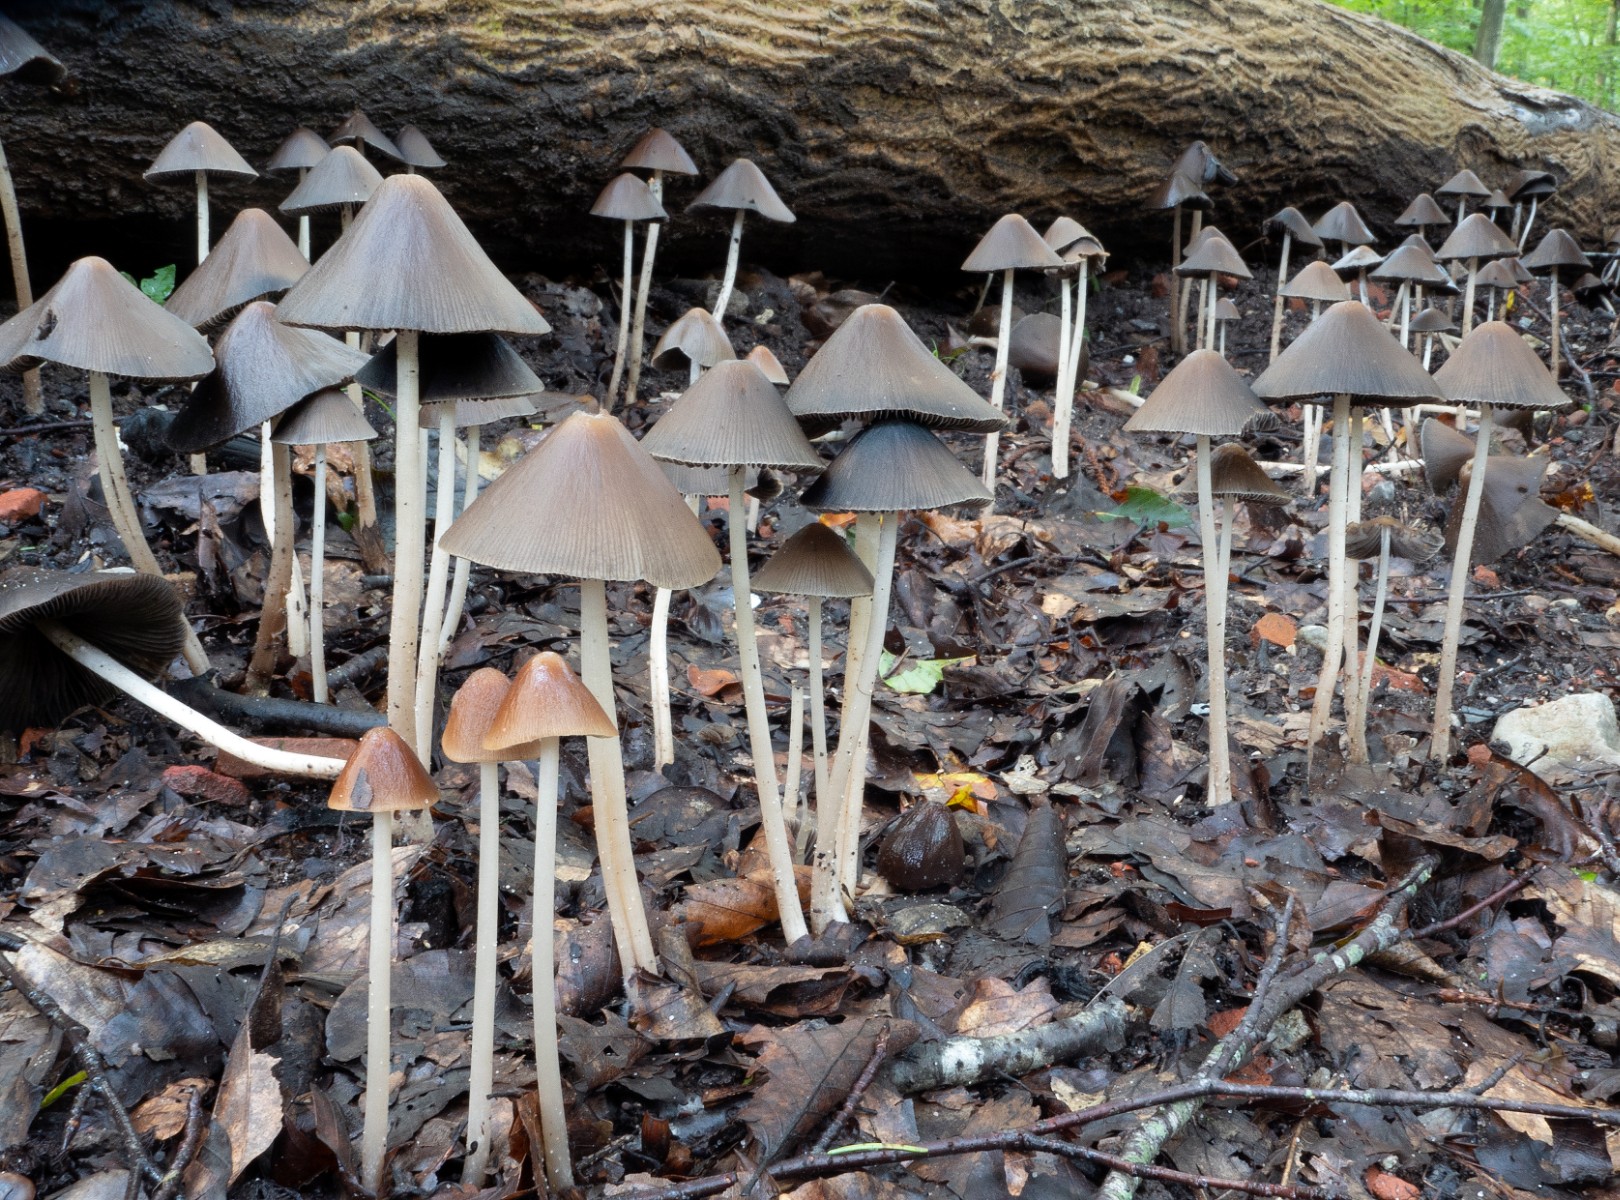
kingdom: Fungi
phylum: Basidiomycota
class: Agaricomycetes
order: Agaricales
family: Psathyrellaceae
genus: Parasola
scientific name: Parasola conopilea
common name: kegle-hjulhat
